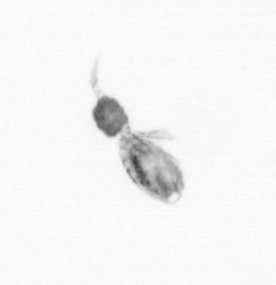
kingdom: Animalia
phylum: Arthropoda
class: Copepoda
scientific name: Copepoda
